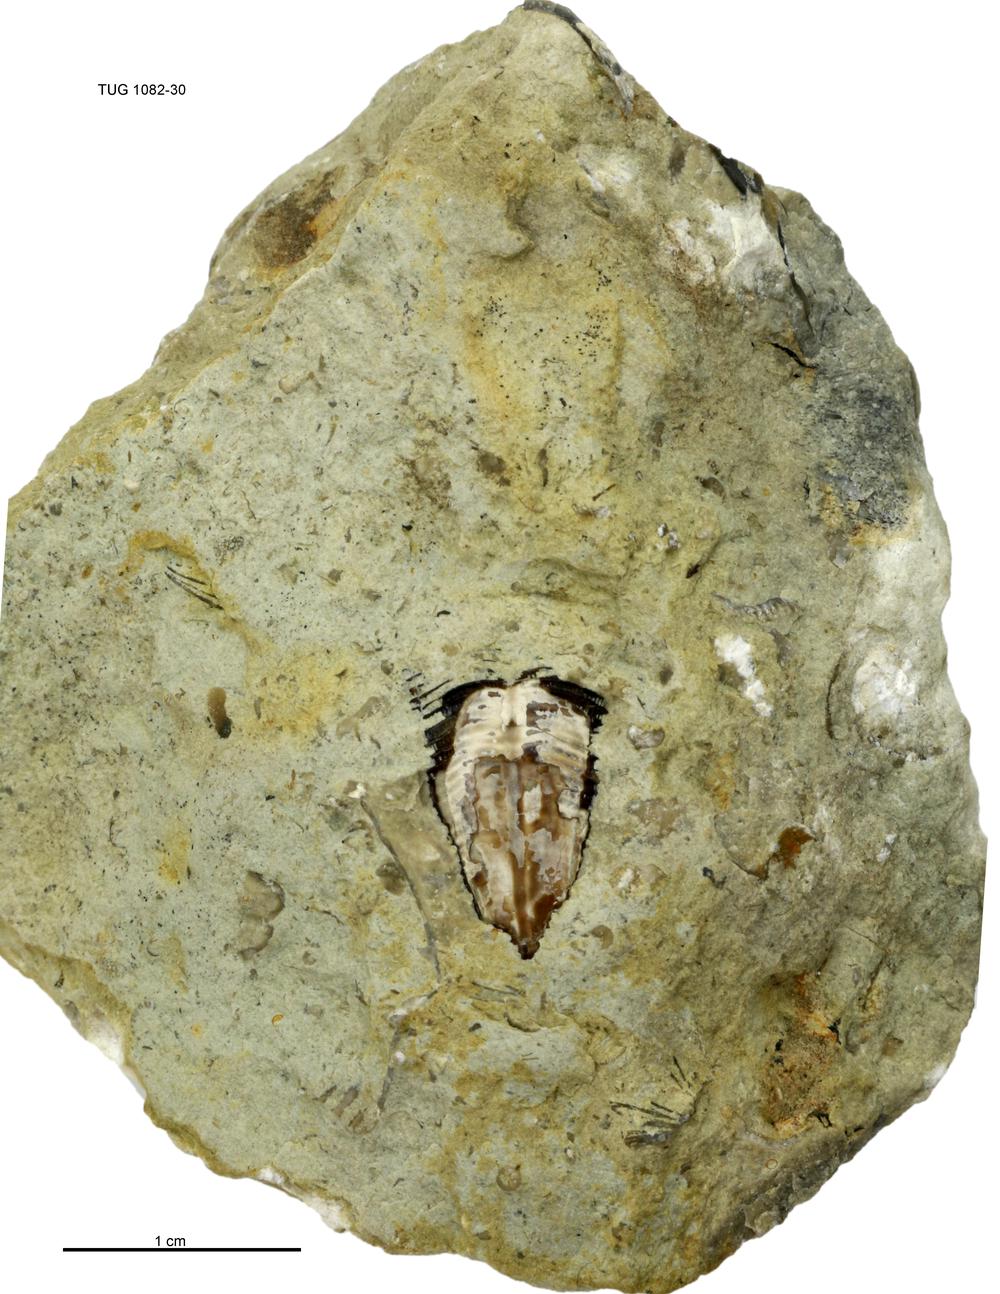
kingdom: Animalia
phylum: Cnidaria
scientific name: Cnidaria
